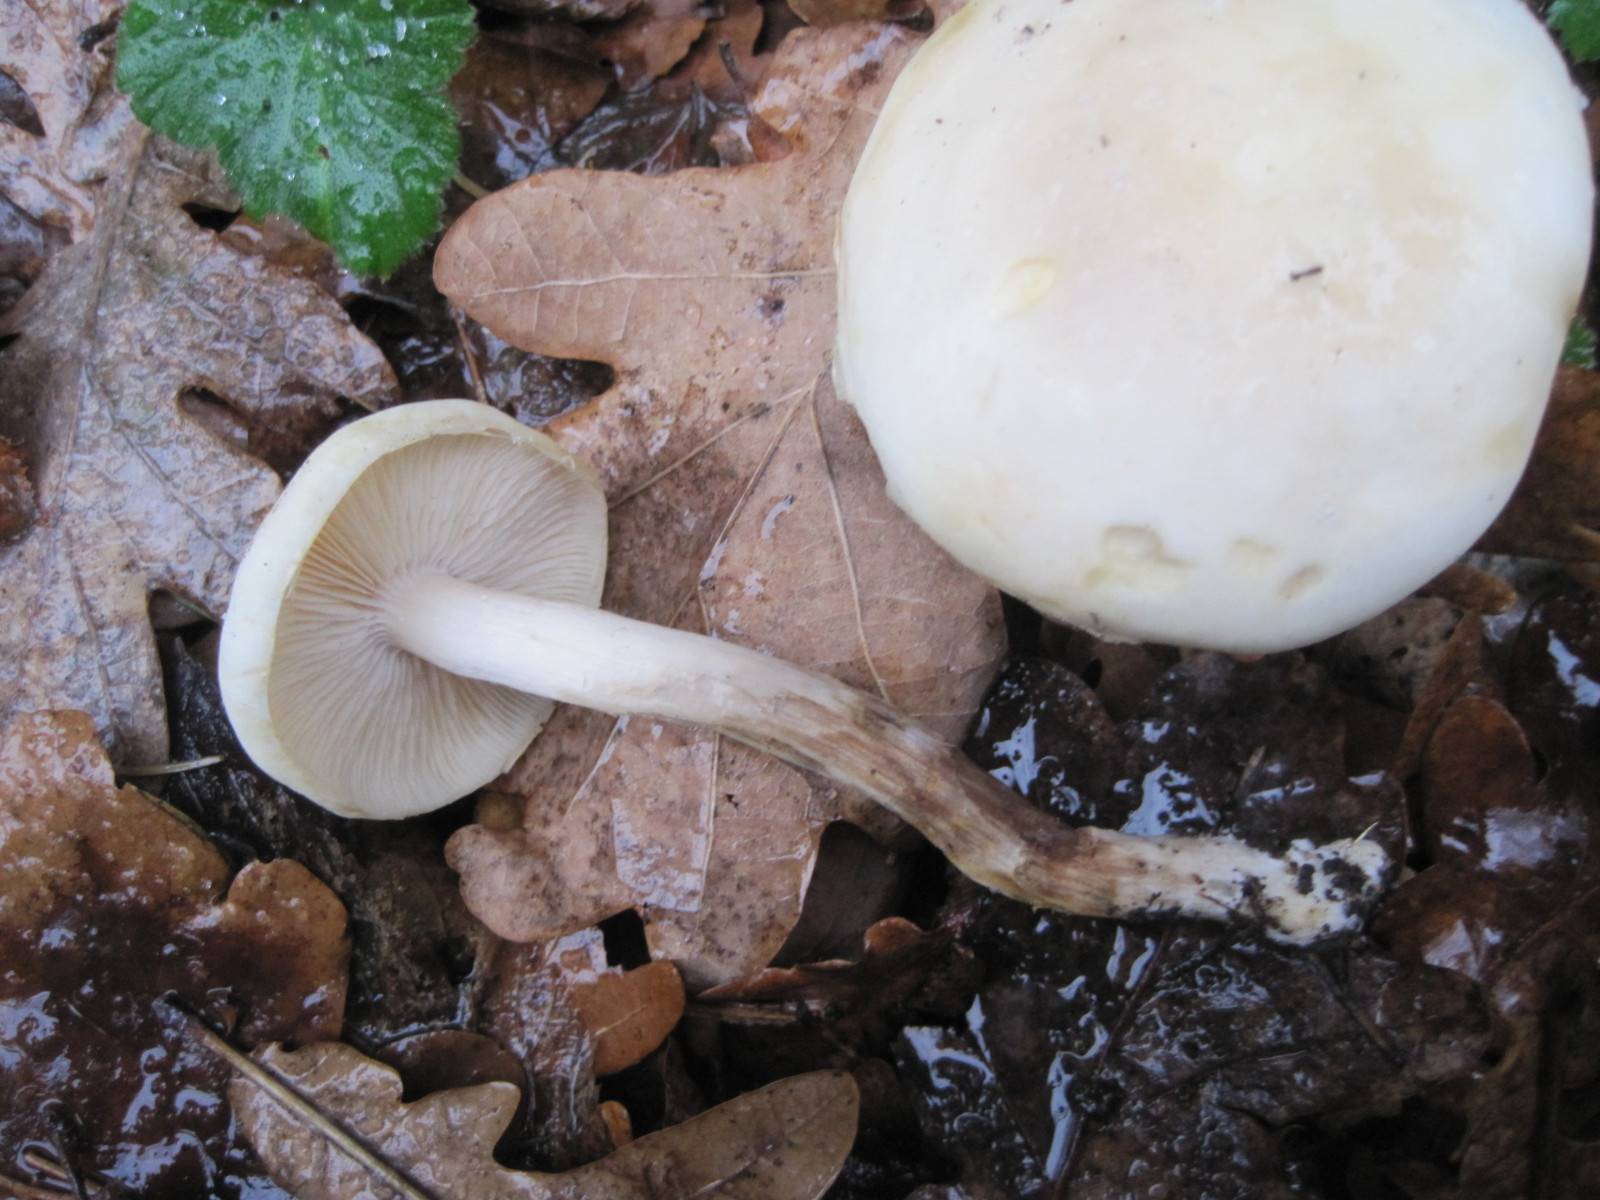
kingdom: Fungi
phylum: Basidiomycota
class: Agaricomycetes
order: Agaricales
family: Omphalotaceae
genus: Rhodocollybia
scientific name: Rhodocollybia maculata
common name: plettet fladhat
